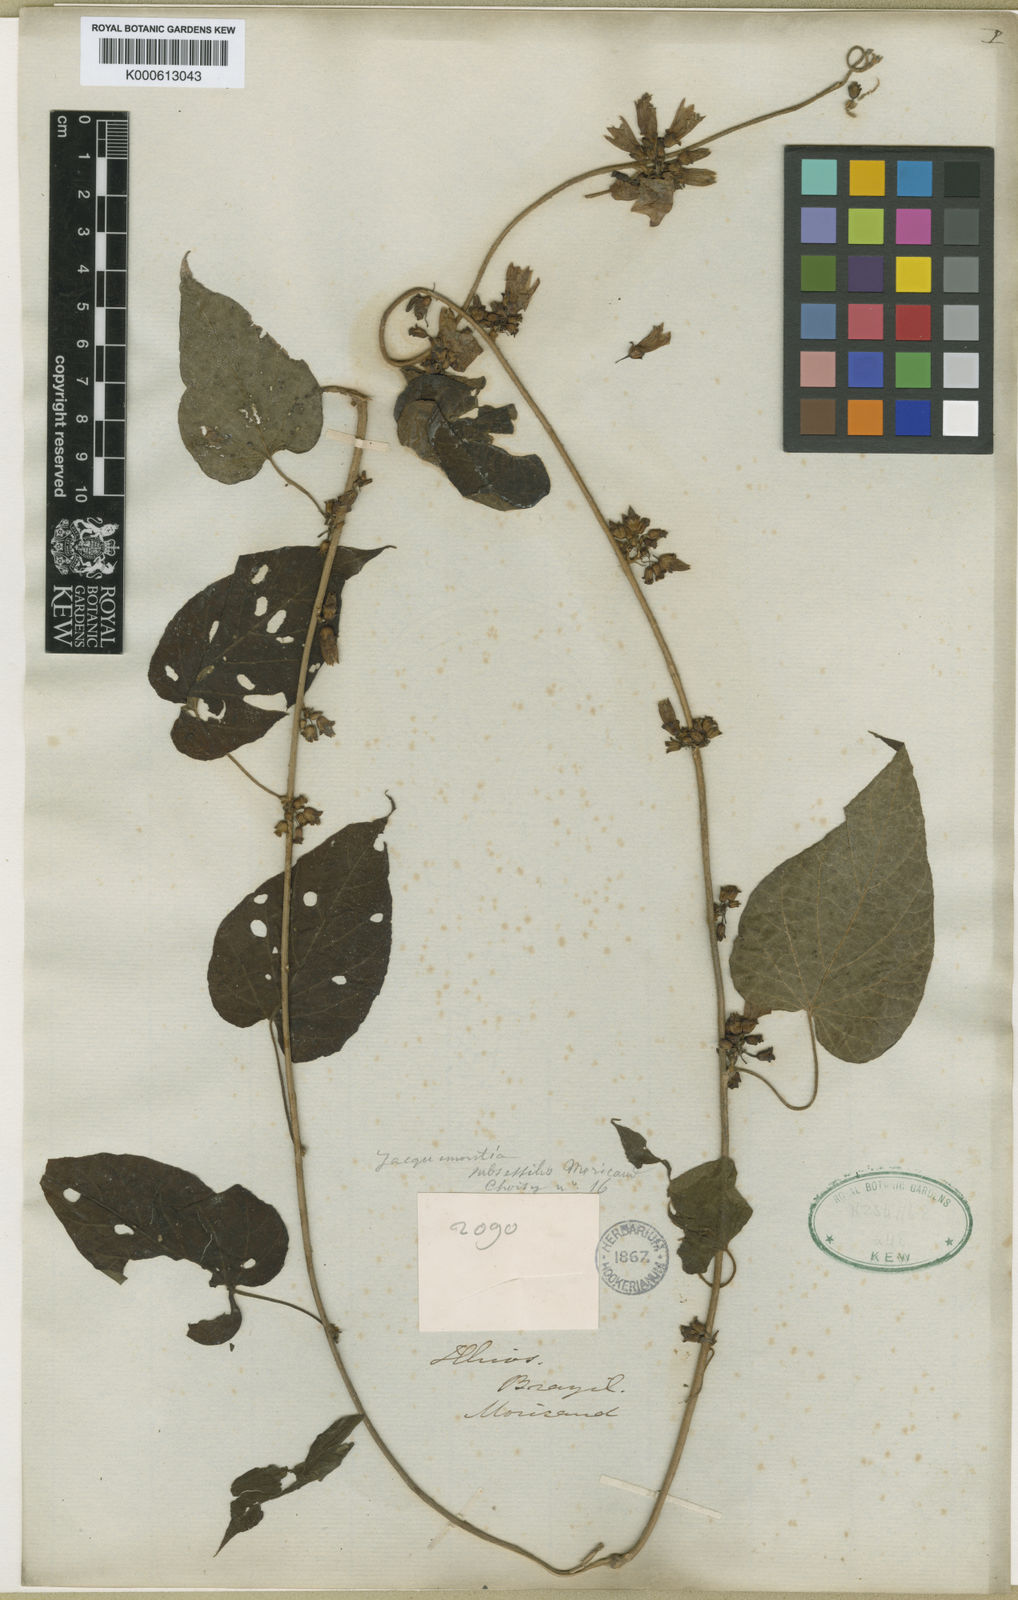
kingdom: Plantae
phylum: Tracheophyta
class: Magnoliopsida
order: Solanales
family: Convolvulaceae
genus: Jacquemontia
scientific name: Jacquemontia subsessilis
